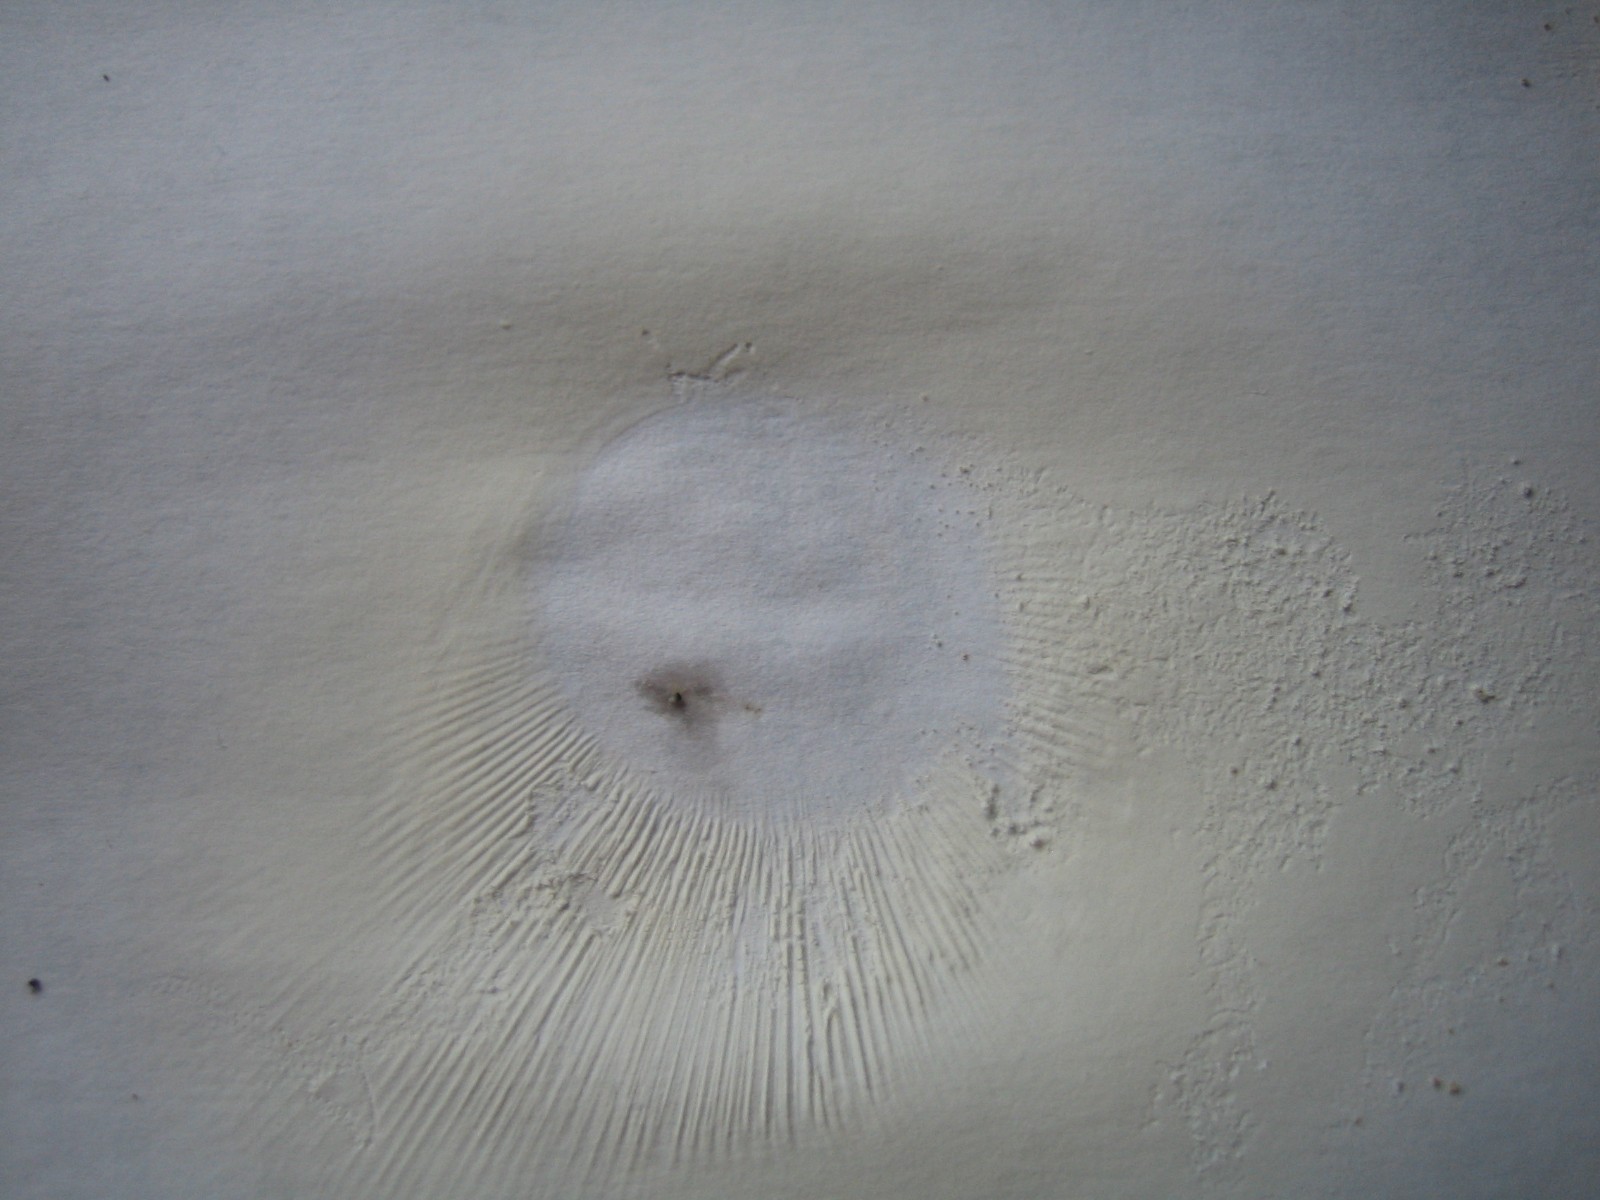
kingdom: Fungi
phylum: Basidiomycota
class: Agaricomycetes
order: Russulales
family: Russulaceae
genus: Russula
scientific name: Russula vesca
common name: spiselig skørhat
